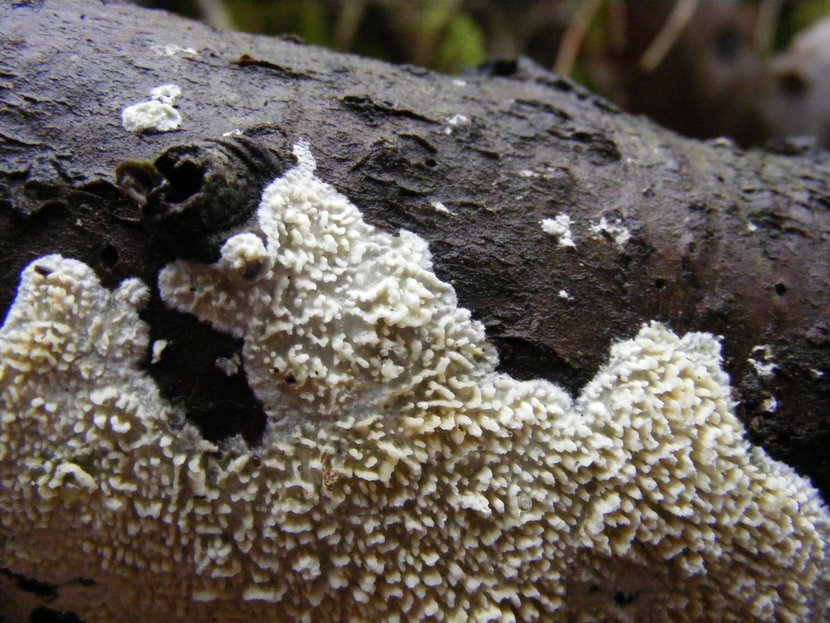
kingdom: Fungi
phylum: Basidiomycota
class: Agaricomycetes
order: Hymenochaetales
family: Schizoporaceae
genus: Schizopora
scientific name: Schizopora paradoxa
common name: hvid tandsvamp
